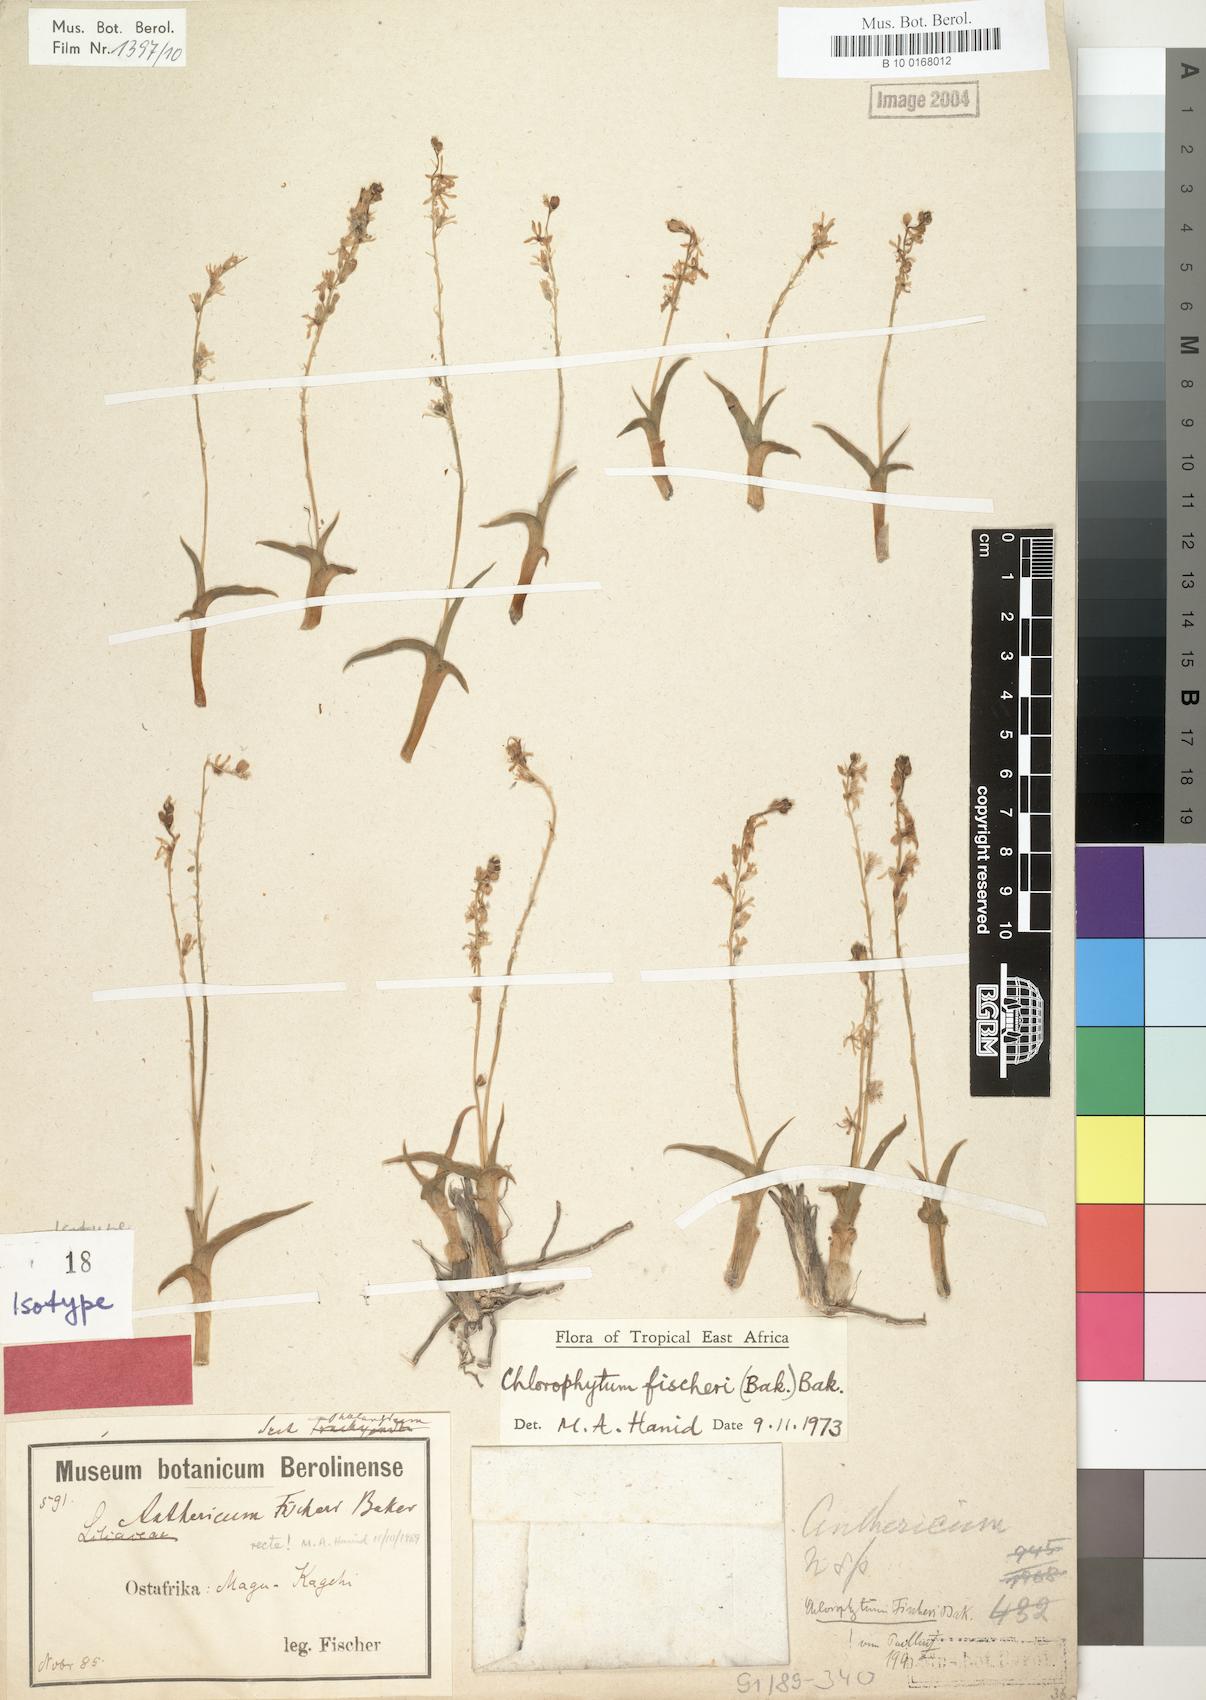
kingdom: Plantae
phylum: Tracheophyta
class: Liliopsida
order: Asparagales
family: Asparagaceae
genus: Chlorophytum
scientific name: Chlorophytum fischeri
